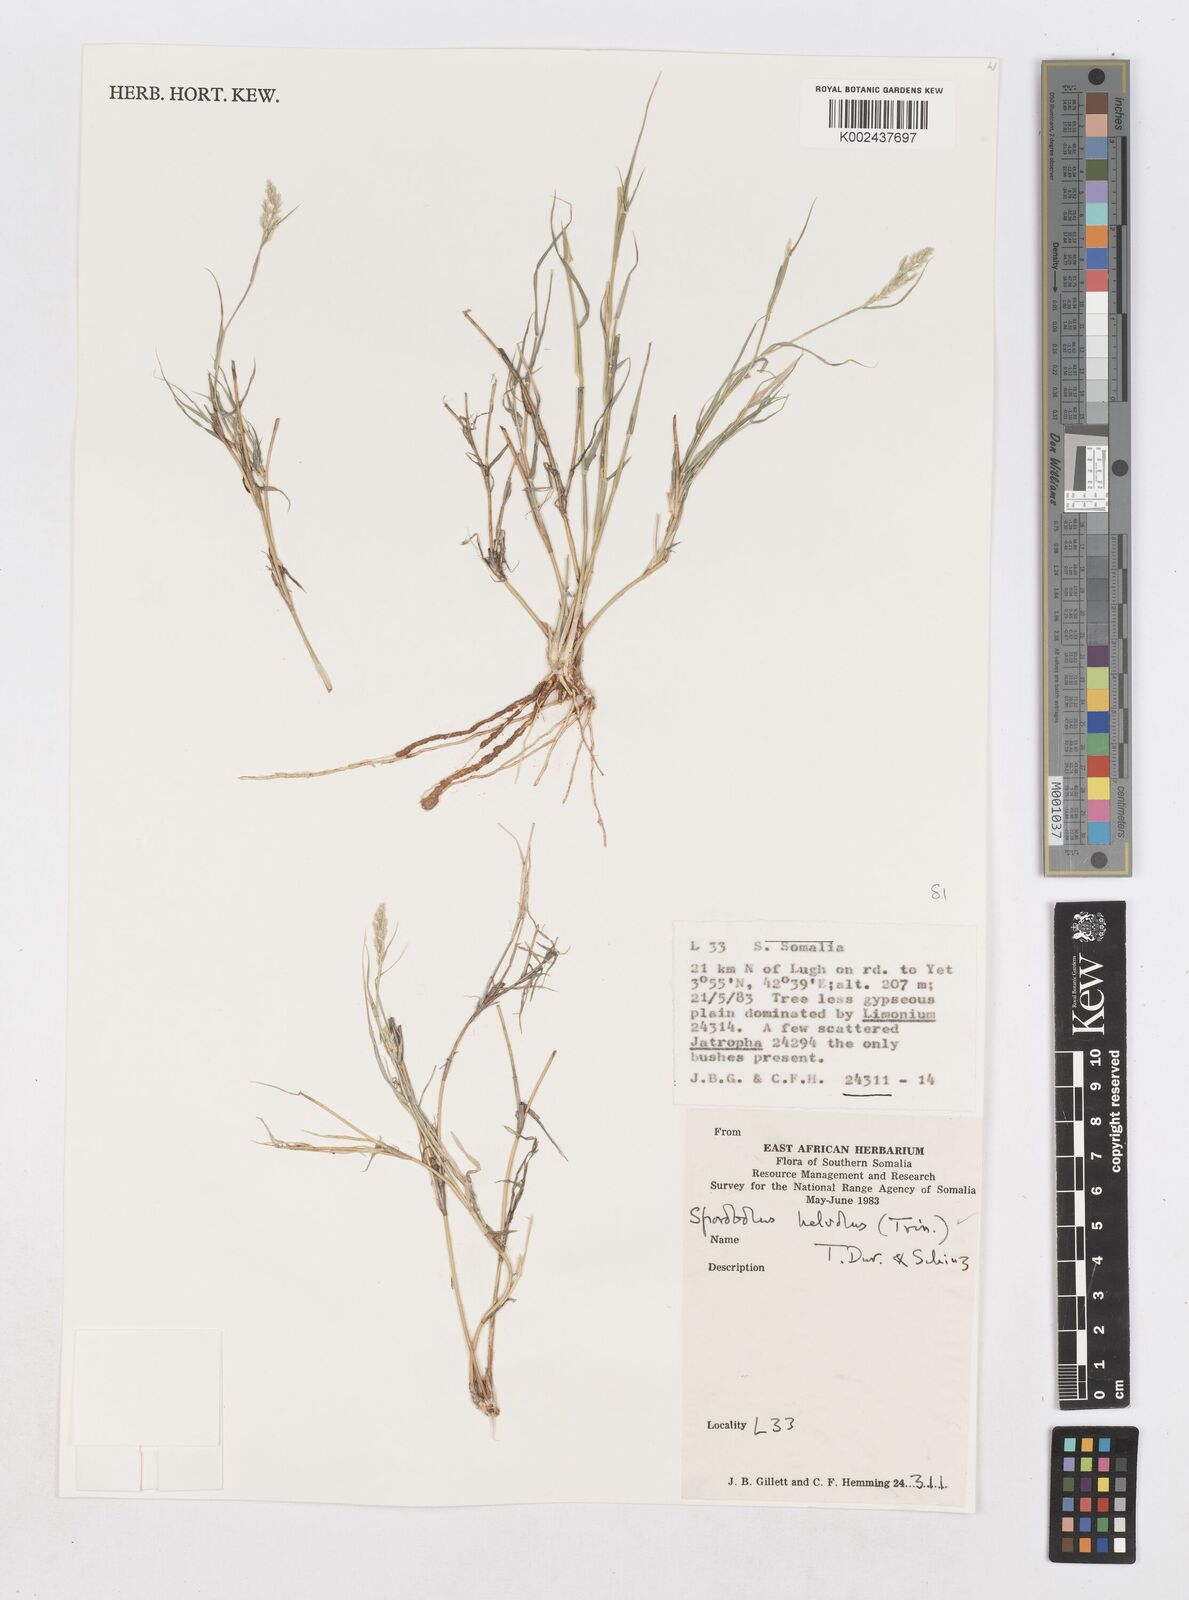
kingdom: Plantae
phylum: Tracheophyta
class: Liliopsida
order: Poales
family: Poaceae
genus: Sporobolus
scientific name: Sporobolus helvolus
